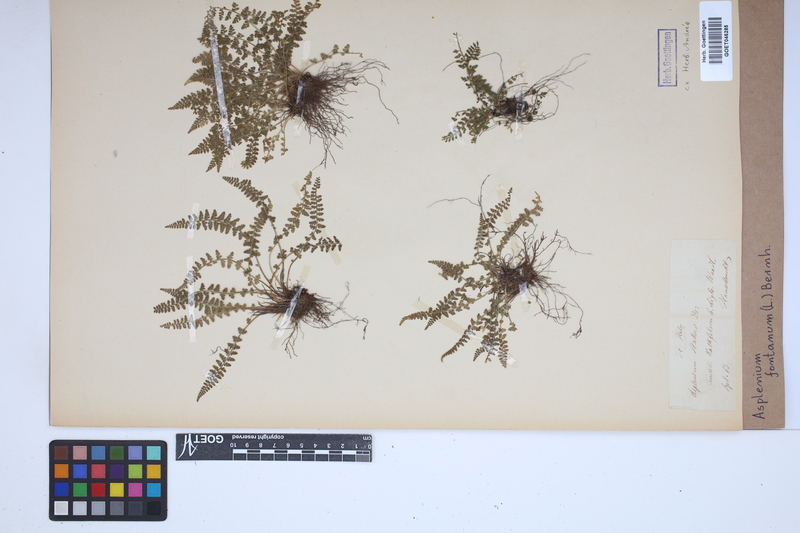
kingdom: Plantae
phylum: Tracheophyta
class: Polypodiopsida
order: Polypodiales
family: Aspleniaceae
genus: Asplenium
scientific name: Asplenium fontanum
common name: Fountain spleenwort
